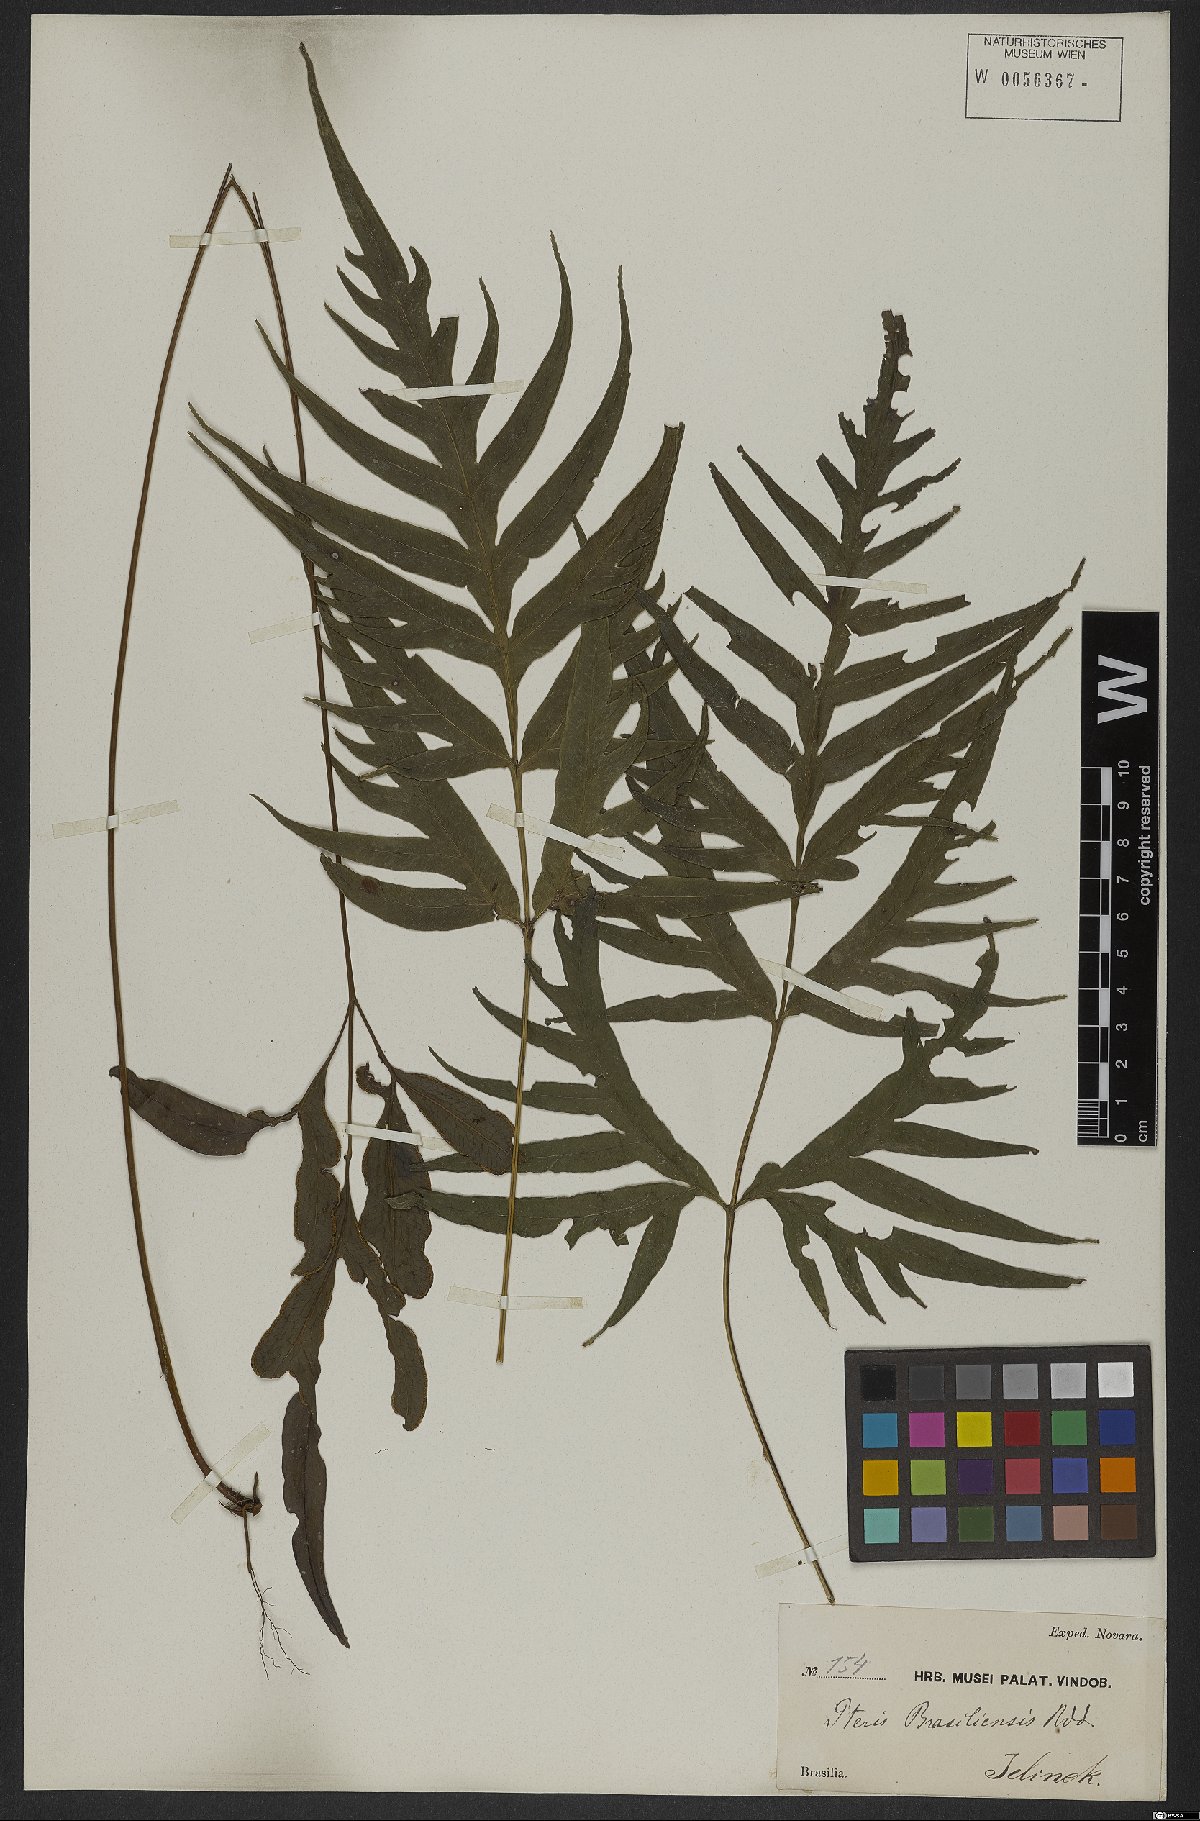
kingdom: Plantae
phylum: Tracheophyta
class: Polypodiopsida
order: Polypodiales
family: Pteridaceae
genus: Pteris
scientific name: Pteris denticulata
